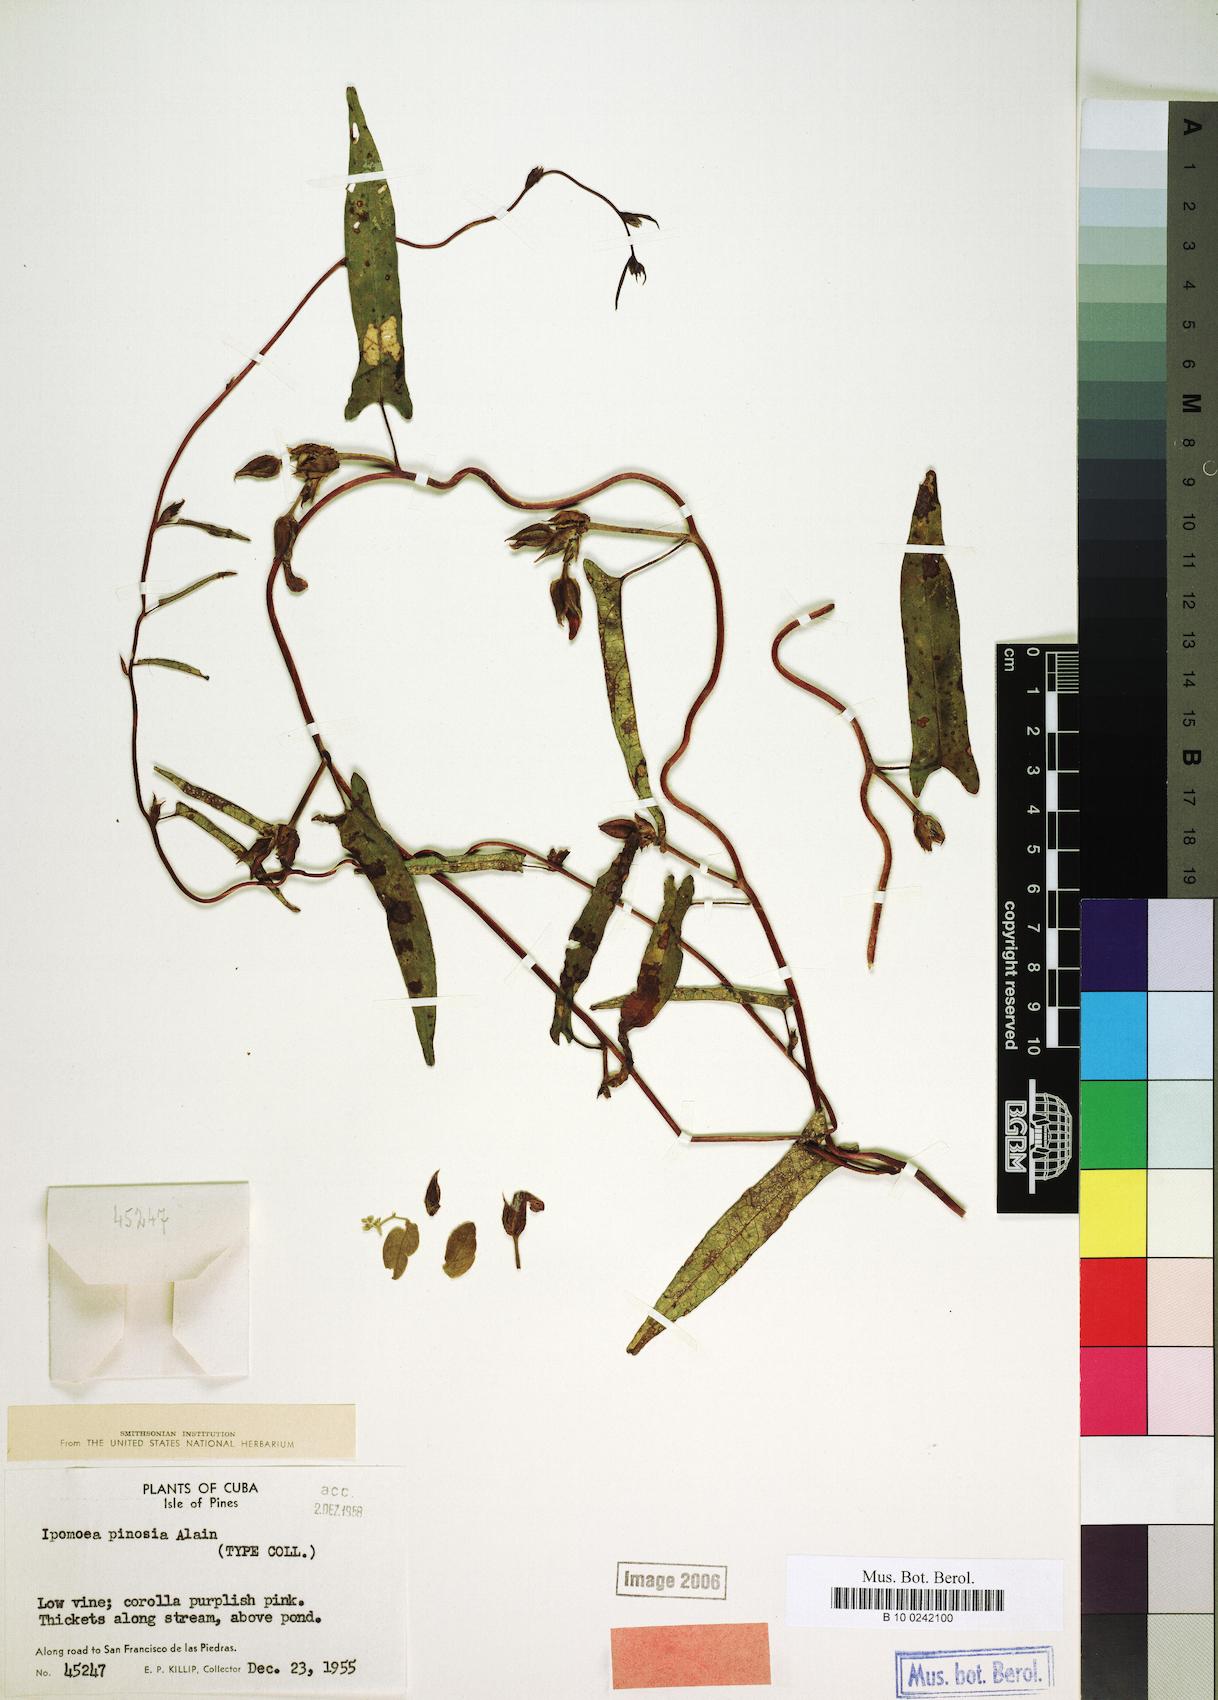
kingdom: Plantae
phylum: Tracheophyta
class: Magnoliopsida
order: Solanales
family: Convolvulaceae
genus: Ipomoea
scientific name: Ipomoea fimbriosepala
